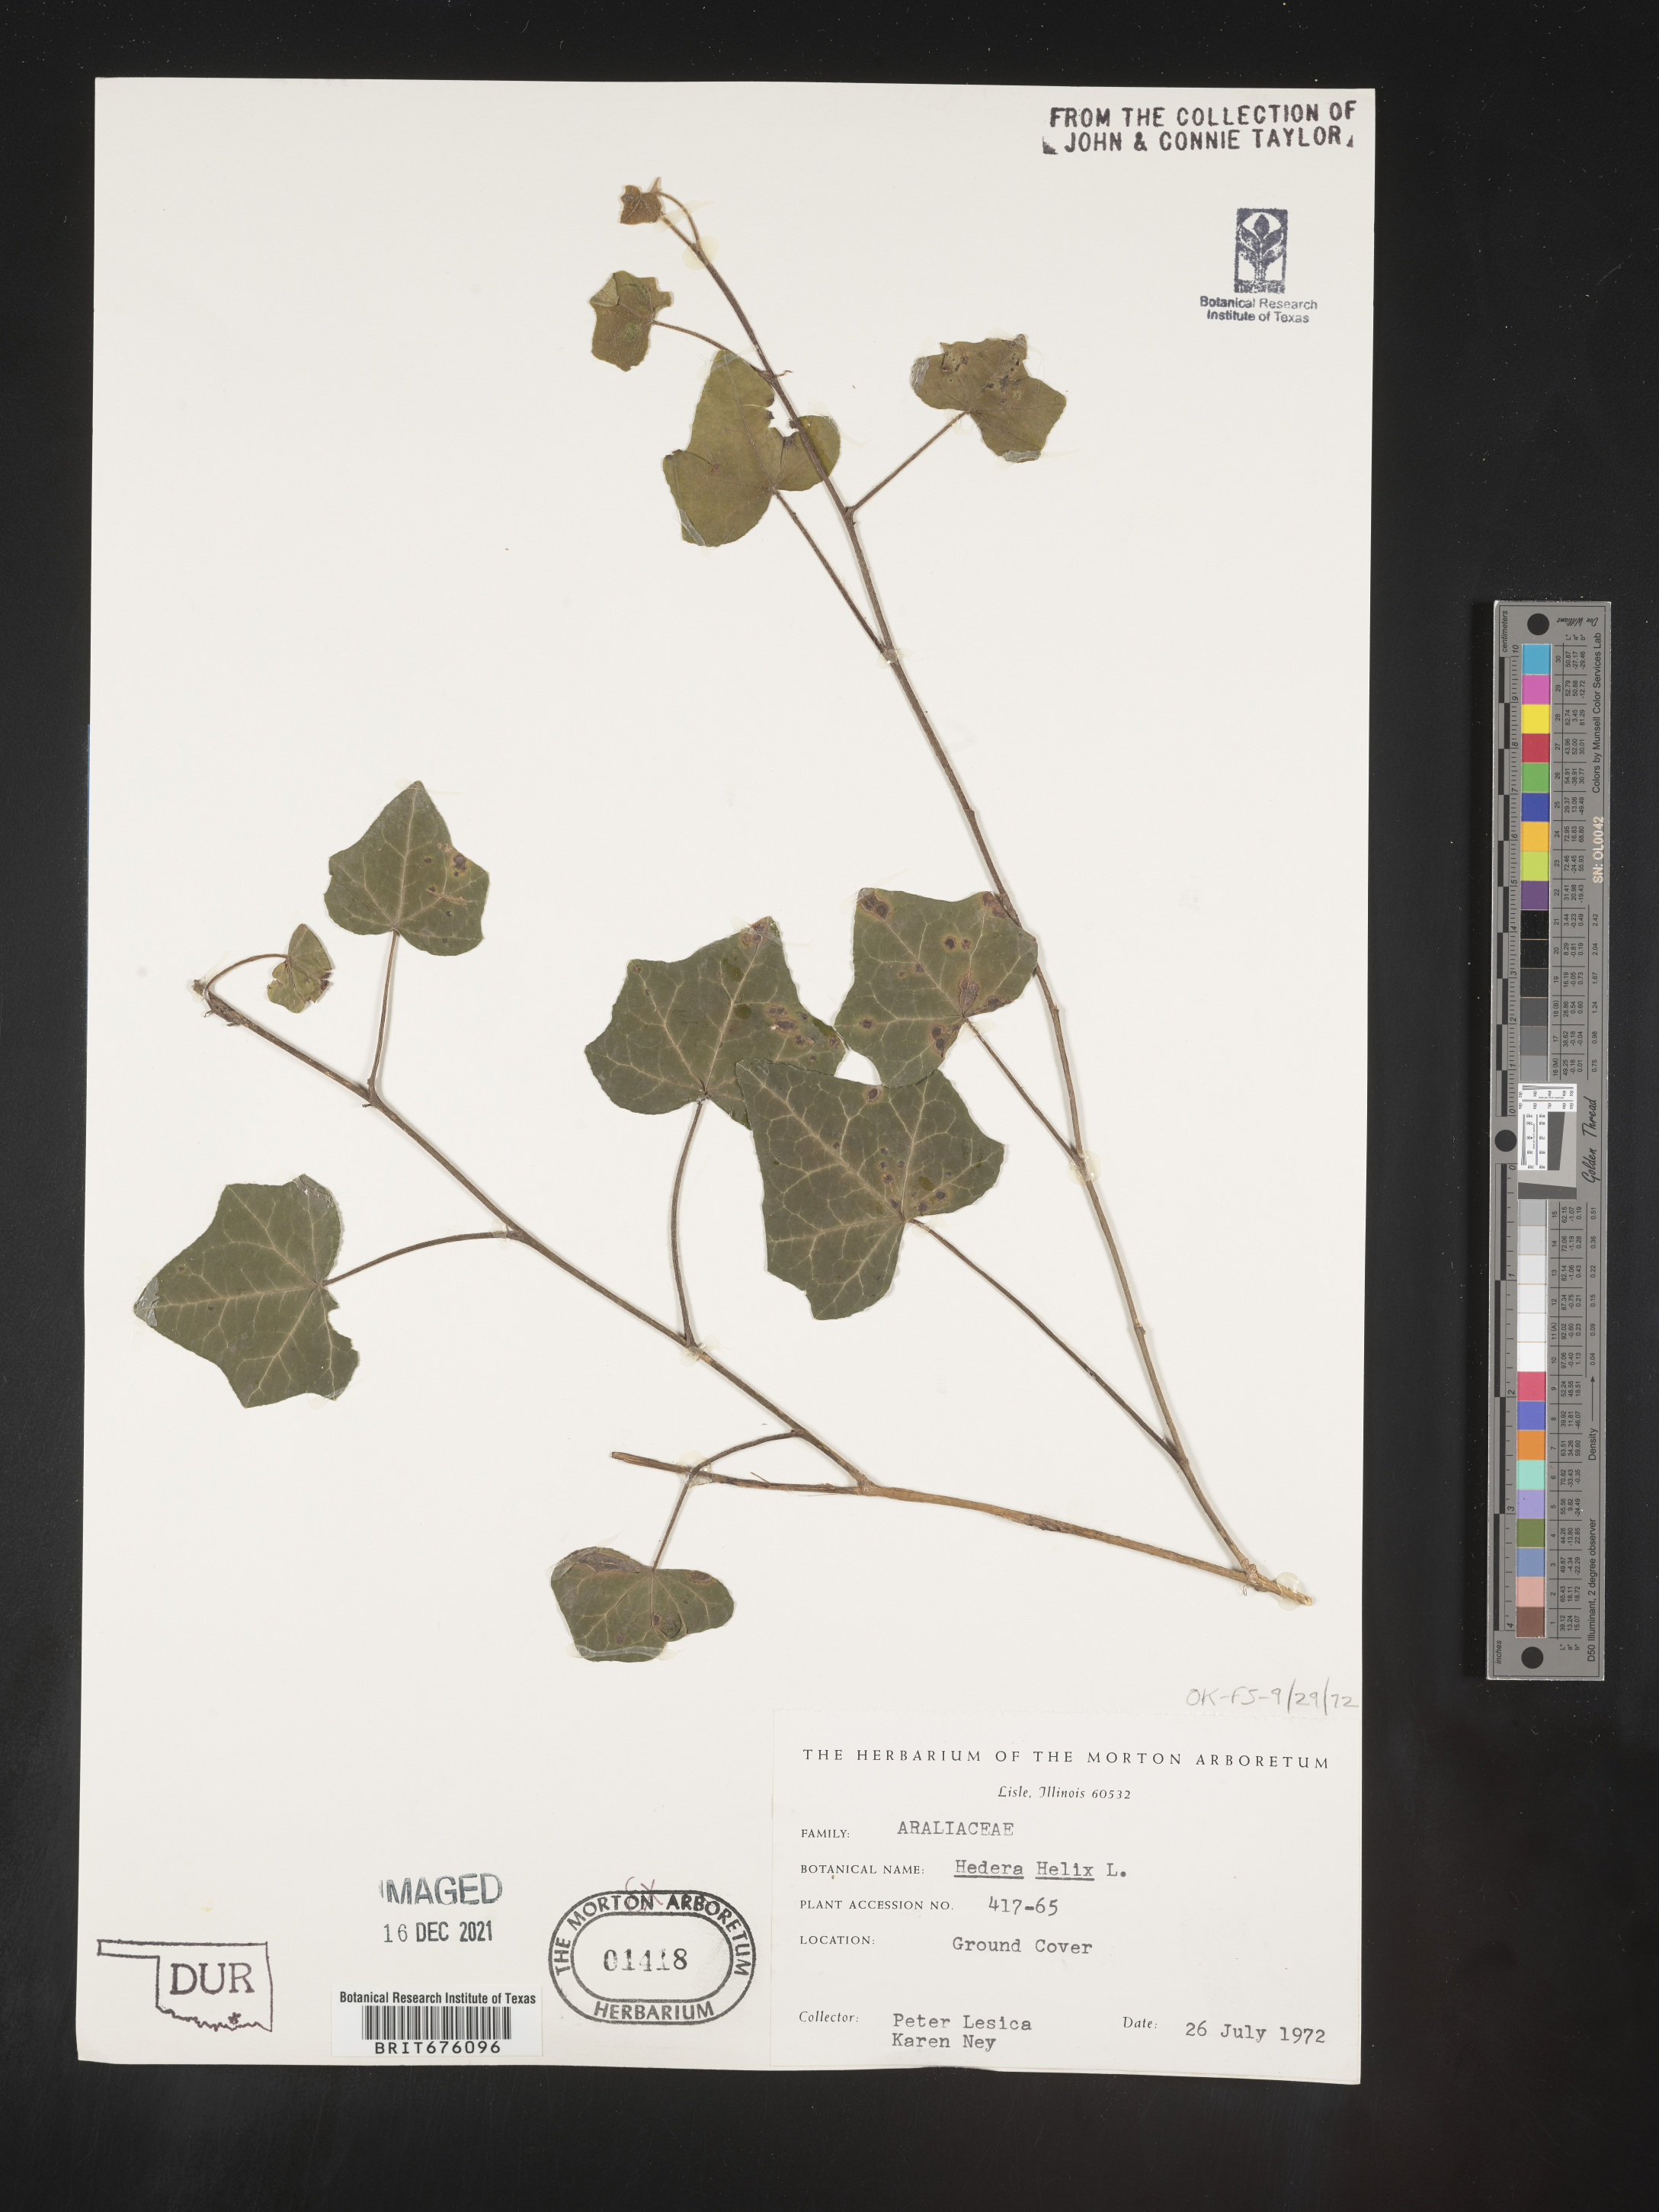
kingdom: Plantae
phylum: Tracheophyta
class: Magnoliopsida
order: Apiales
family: Araliaceae
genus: Hedera
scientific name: Hedera
